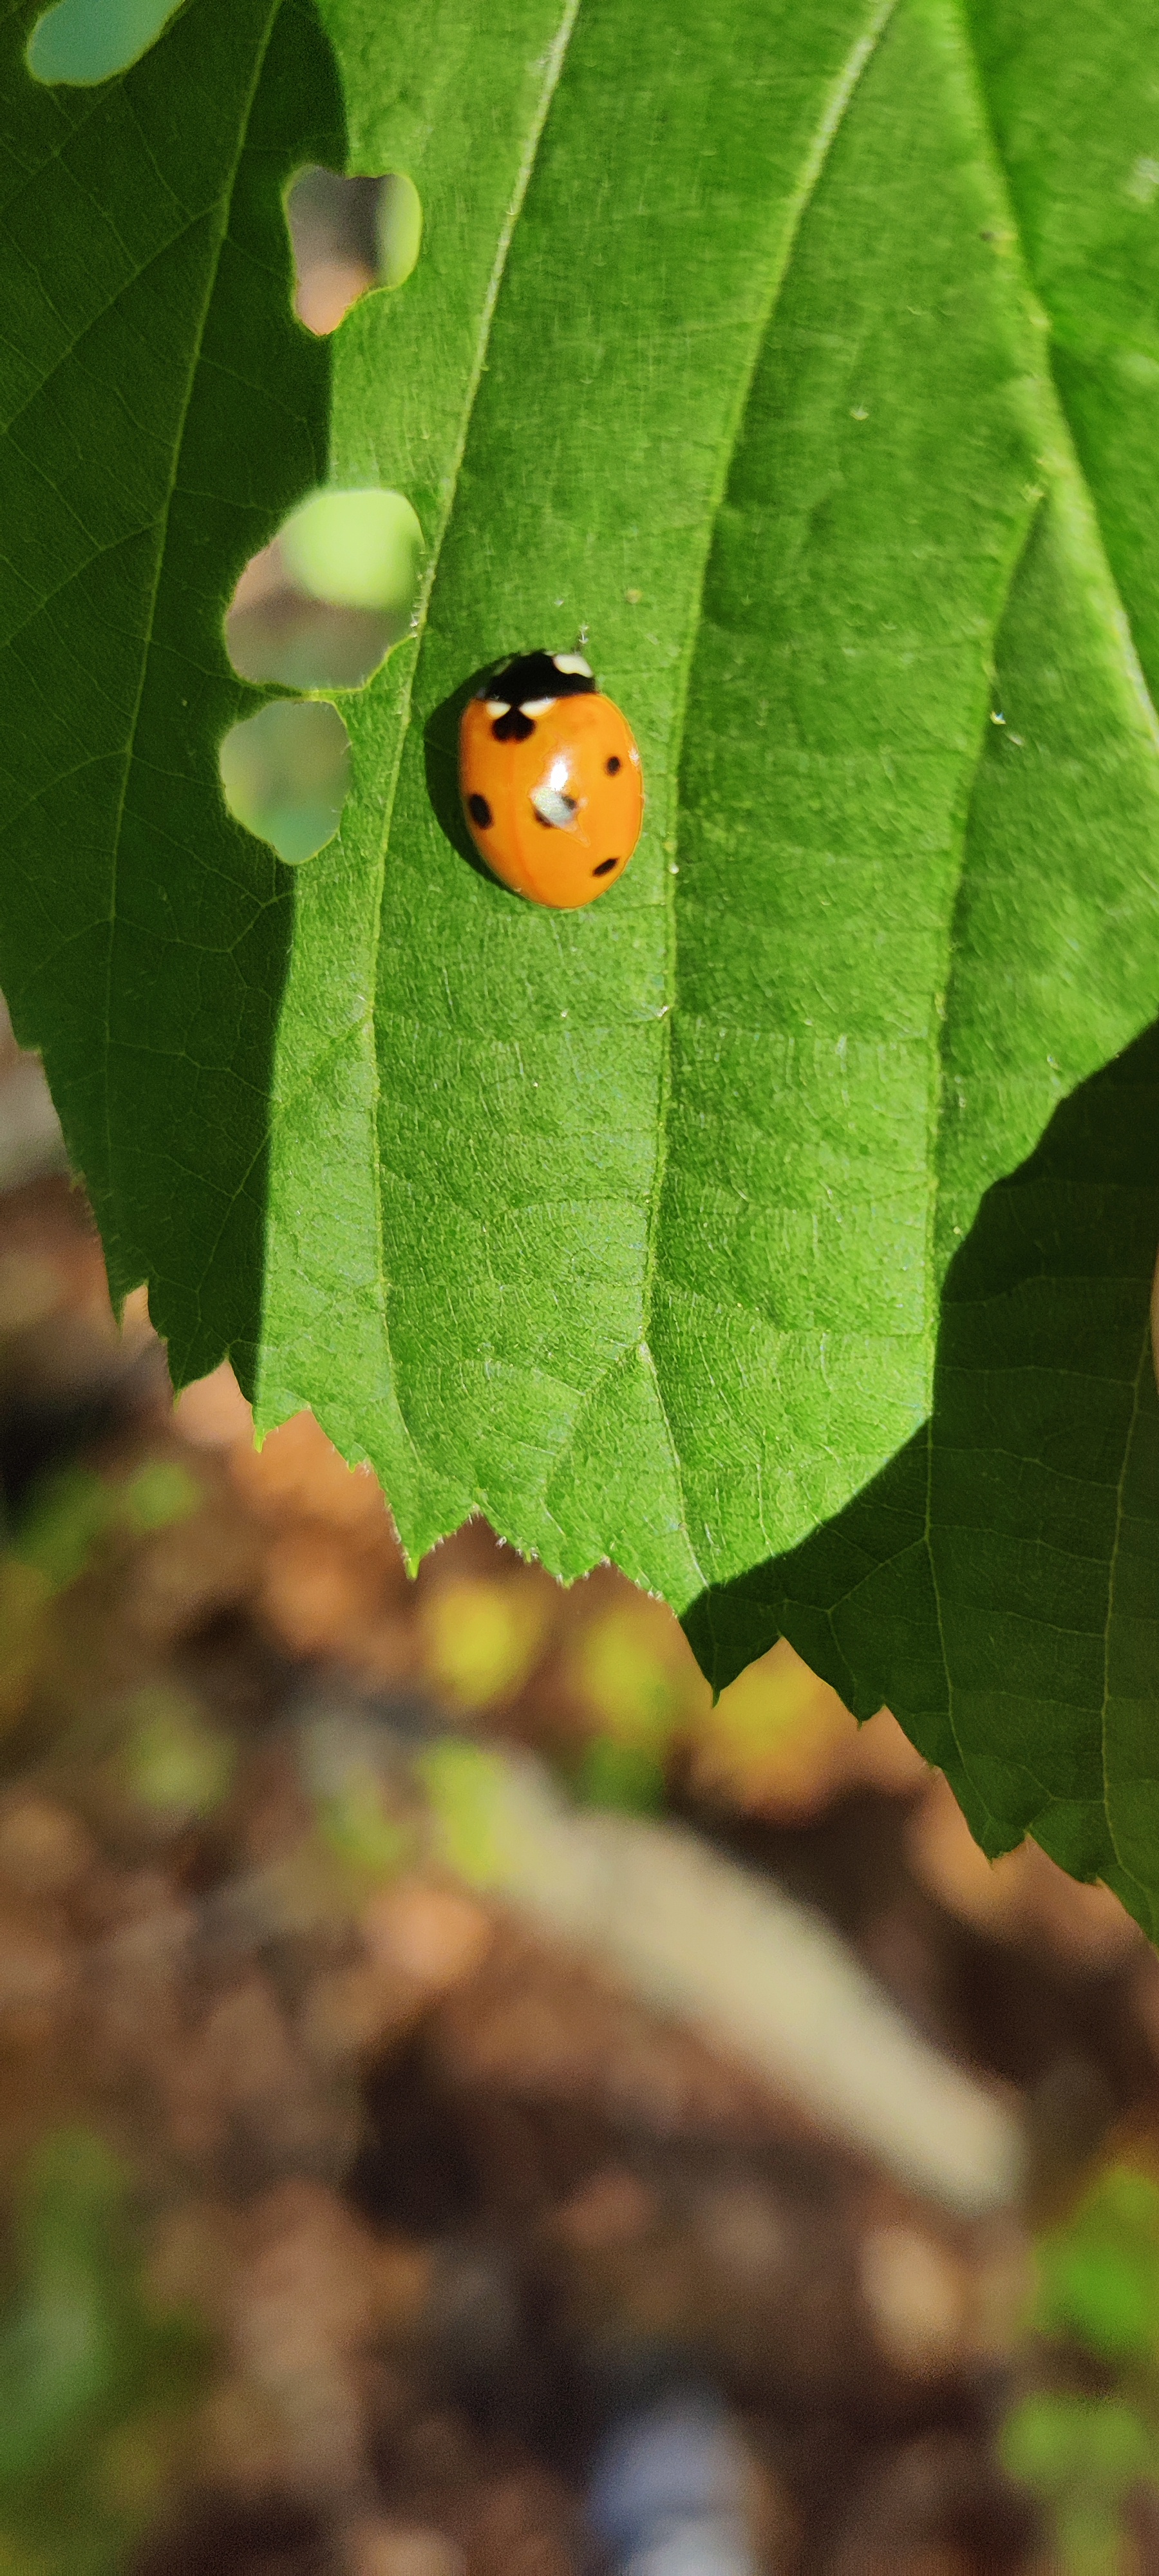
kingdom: Animalia
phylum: Arthropoda
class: Insecta
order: Coleoptera
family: Coccinellidae
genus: Coccinella
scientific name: Coccinella septempunctata
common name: Syvplettet mariehøne
